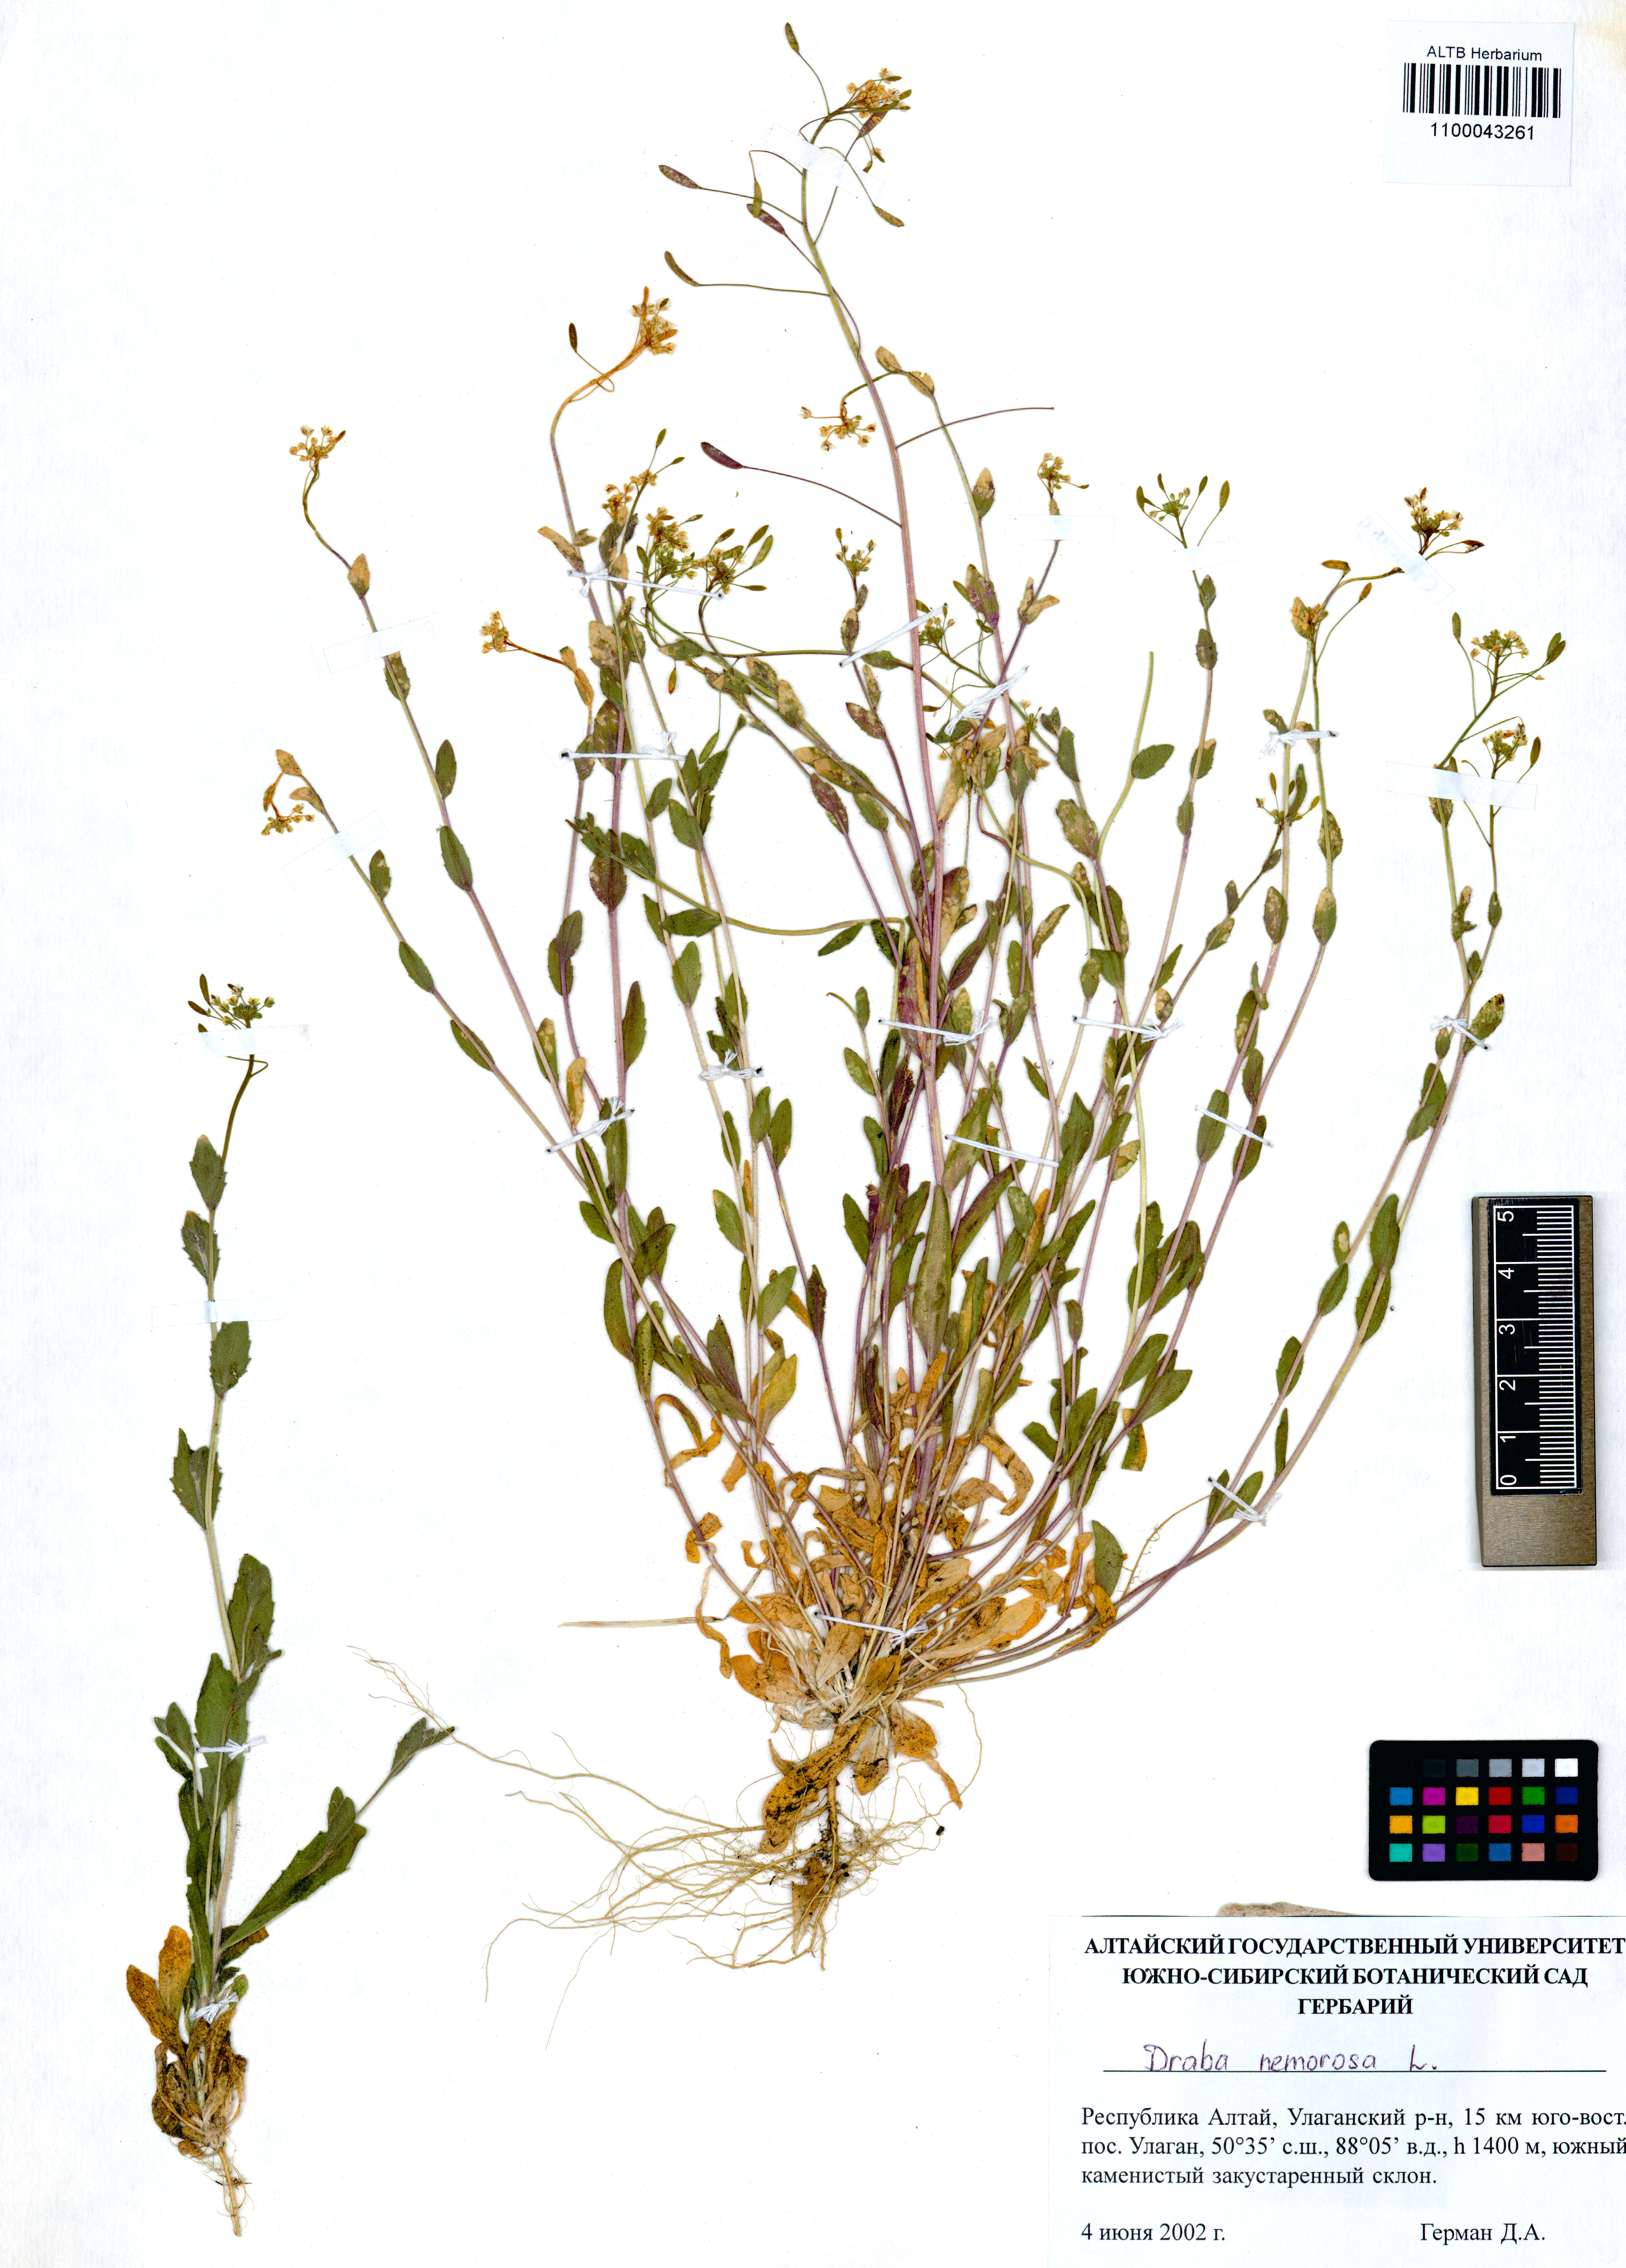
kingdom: Plantae
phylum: Tracheophyta
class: Magnoliopsida
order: Brassicales
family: Brassicaceae
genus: Draba
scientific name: Draba nemorosa
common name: Wood whitlow-grass
